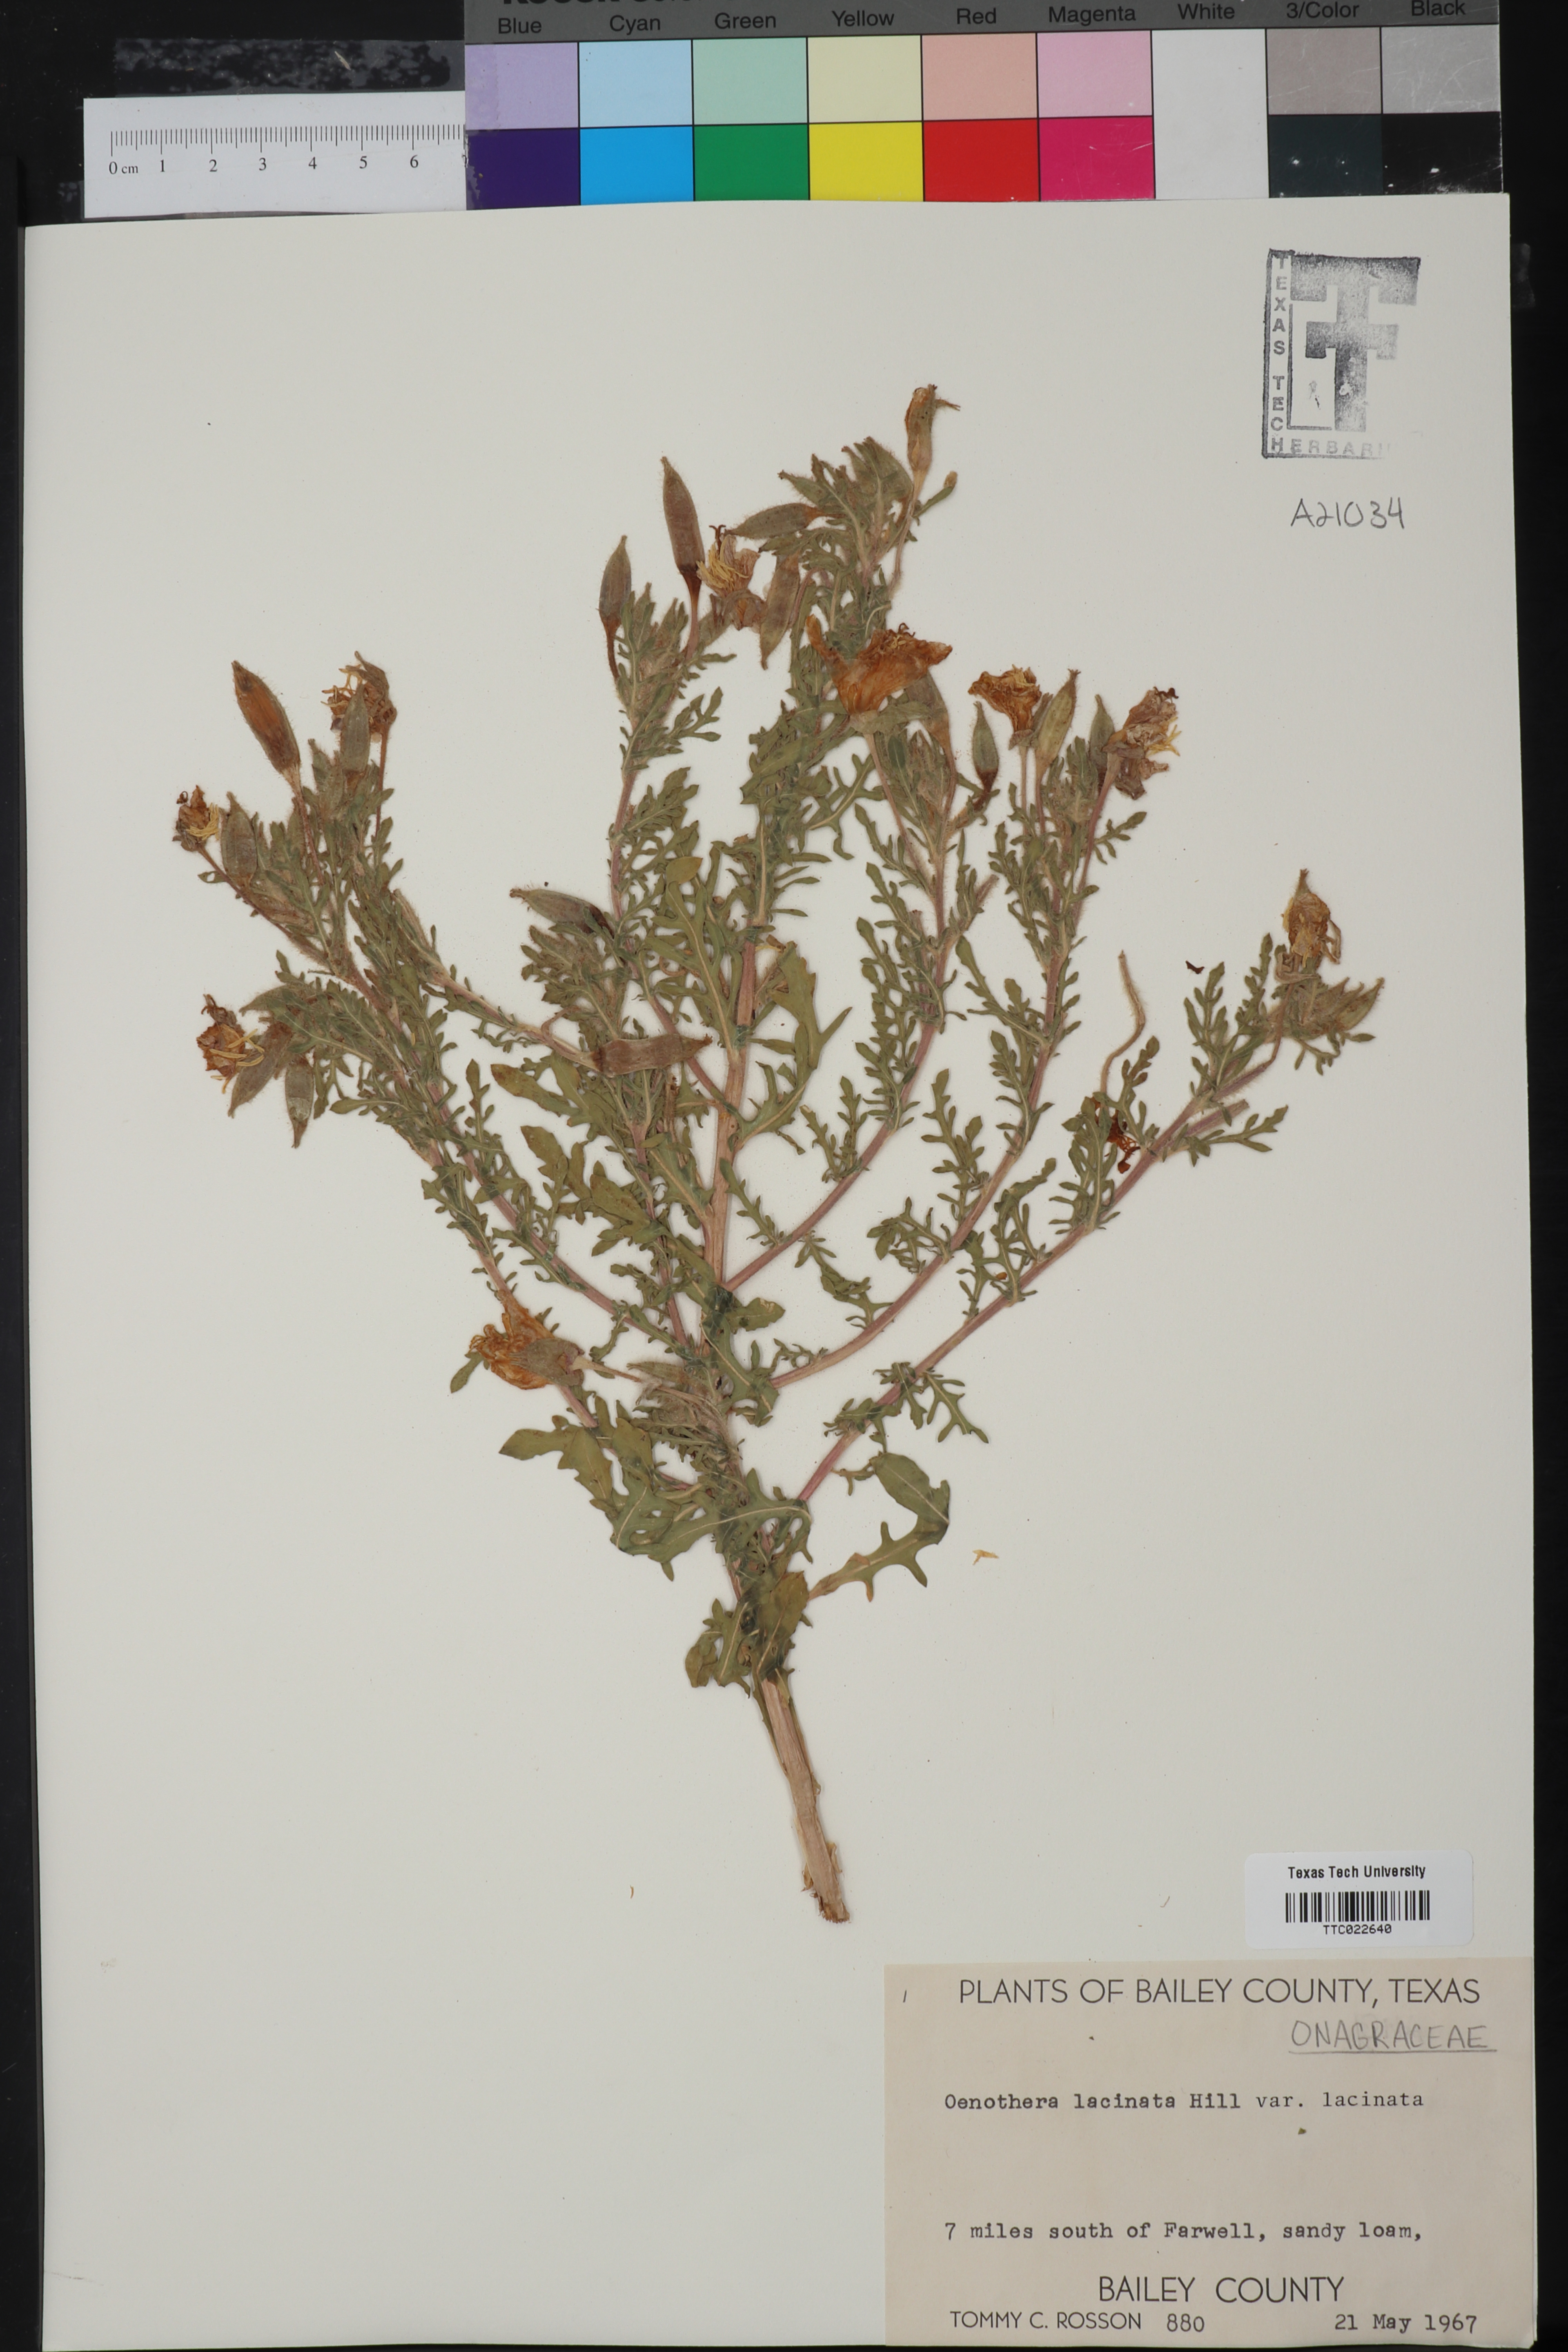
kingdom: Plantae
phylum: Tracheophyta
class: Magnoliopsida
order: Myrtales
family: Onagraceae
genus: Oenothera
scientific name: Oenothera laciniata
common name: Cut-leaved evening-primrose
